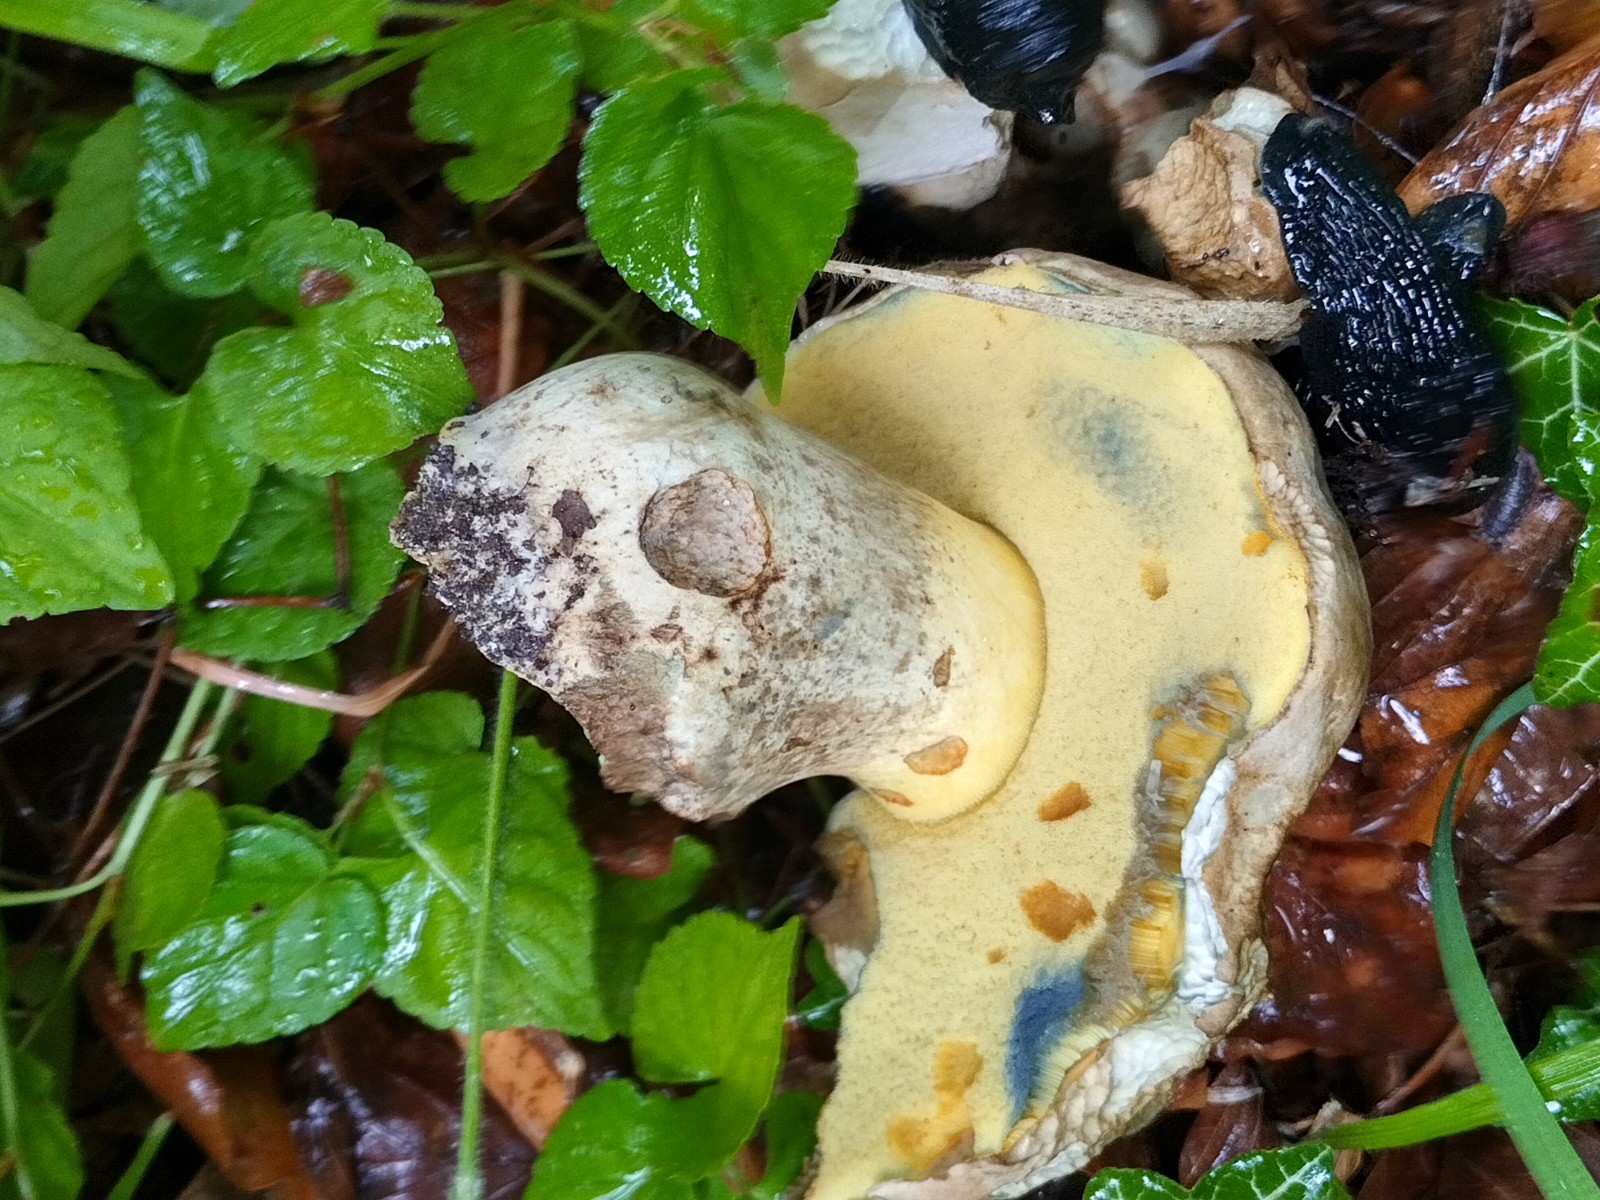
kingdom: Fungi
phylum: Basidiomycota
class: Agaricomycetes
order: Boletales
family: Boletaceae
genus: Caloboletus
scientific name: Caloboletus radicans
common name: rod-rørhat
